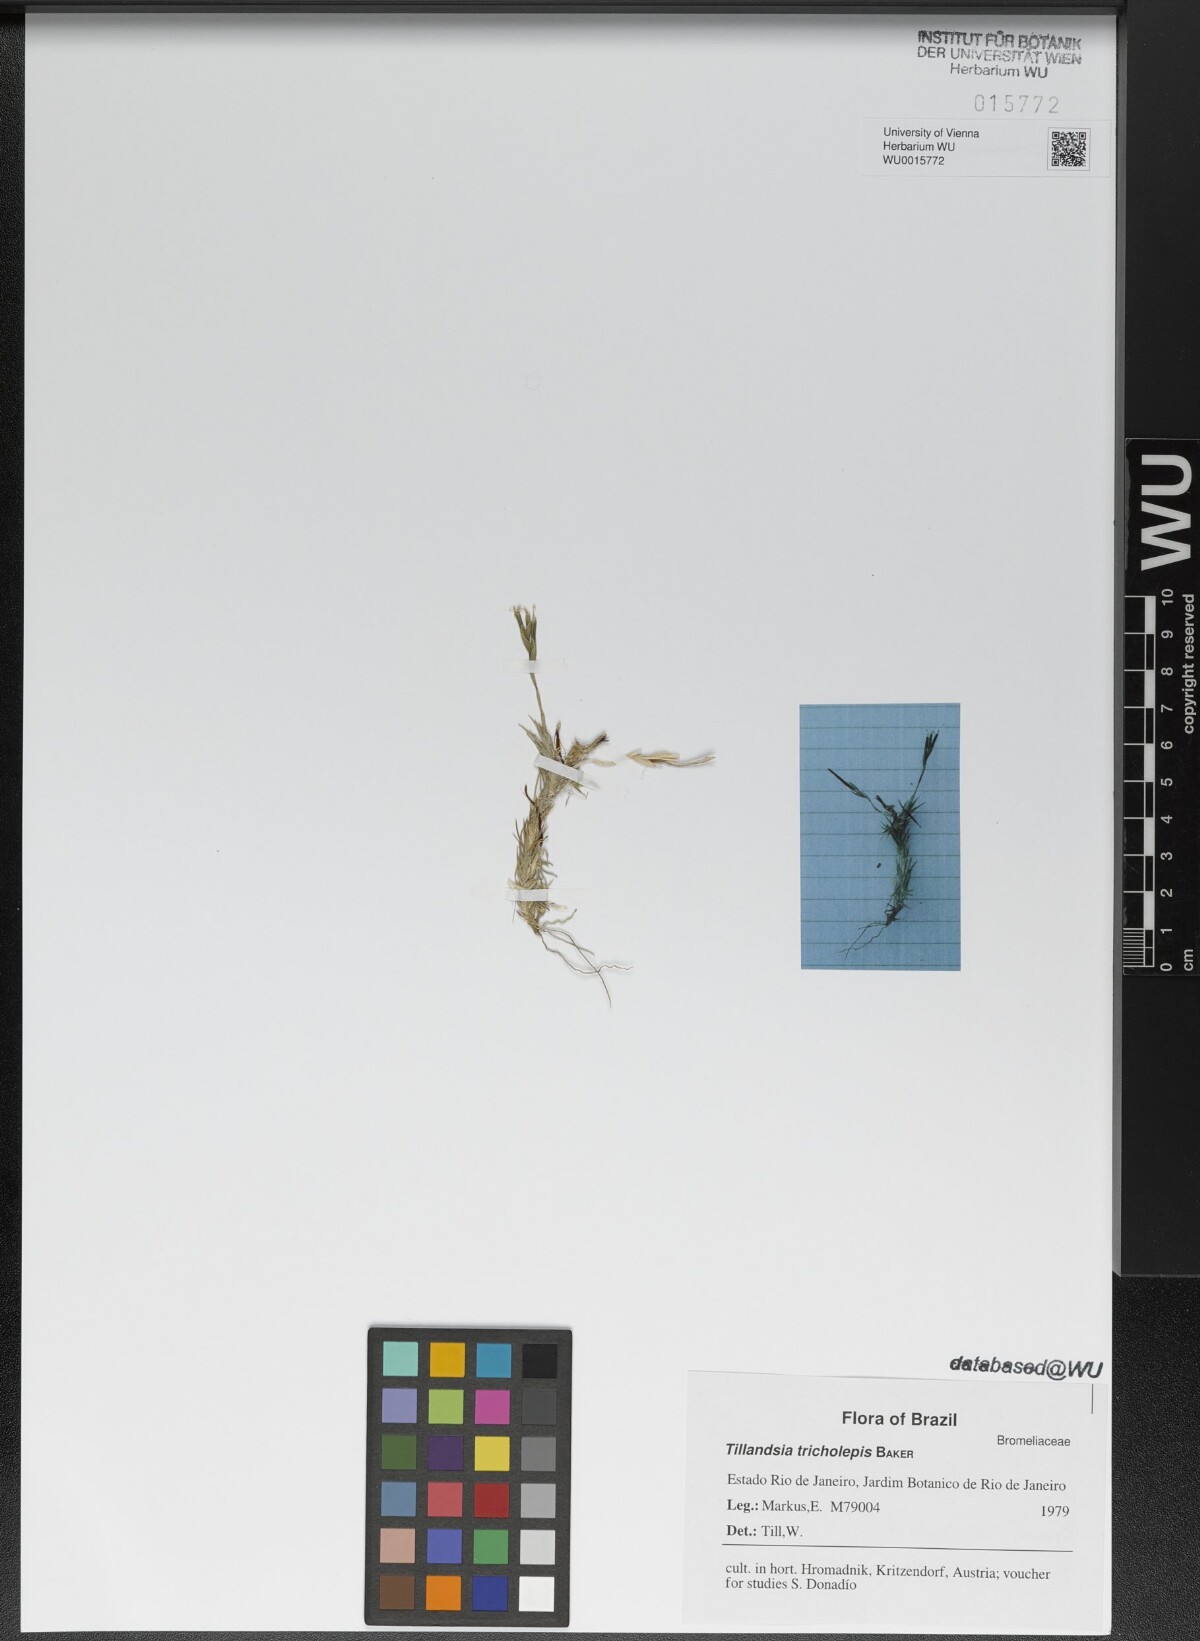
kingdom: Plantae
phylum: Tracheophyta
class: Liliopsida
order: Poales
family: Bromeliaceae
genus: Tillandsia
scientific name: Tillandsia tricholepis
